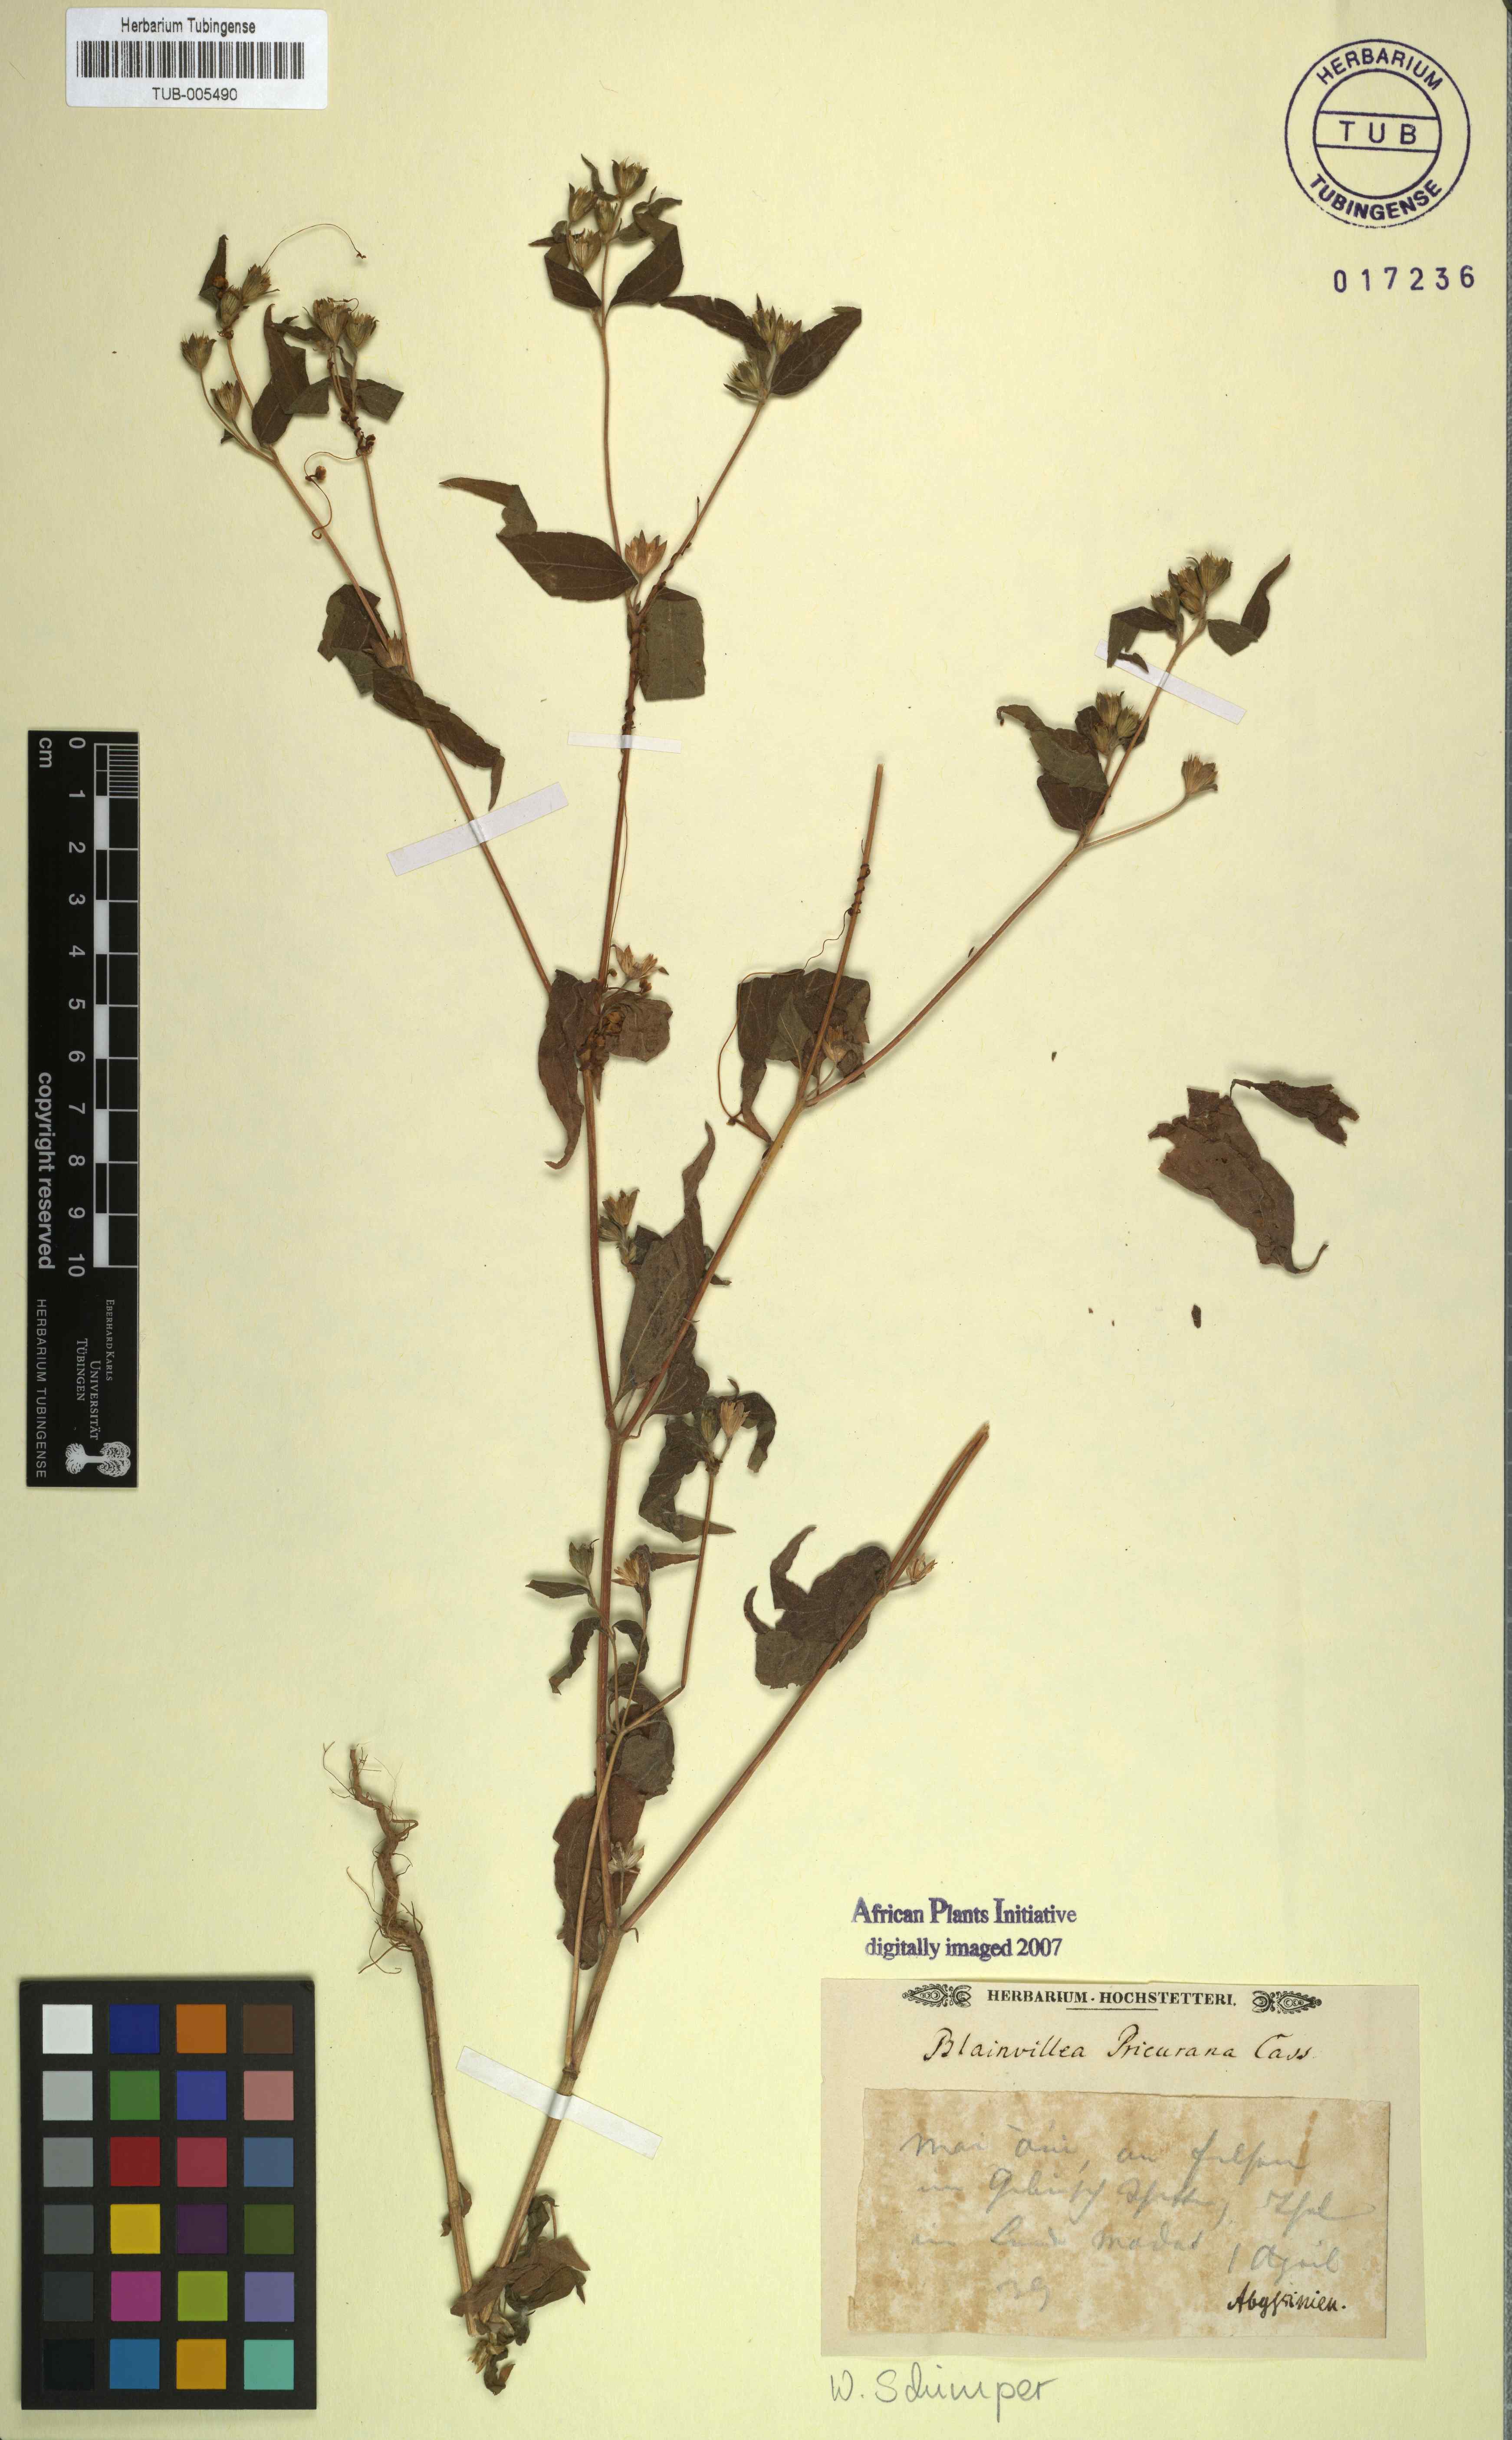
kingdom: Plantae
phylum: Tracheophyta
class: Magnoliopsida
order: Asterales
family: Asteraceae
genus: Aspilia
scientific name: Aspilia helianthoides
